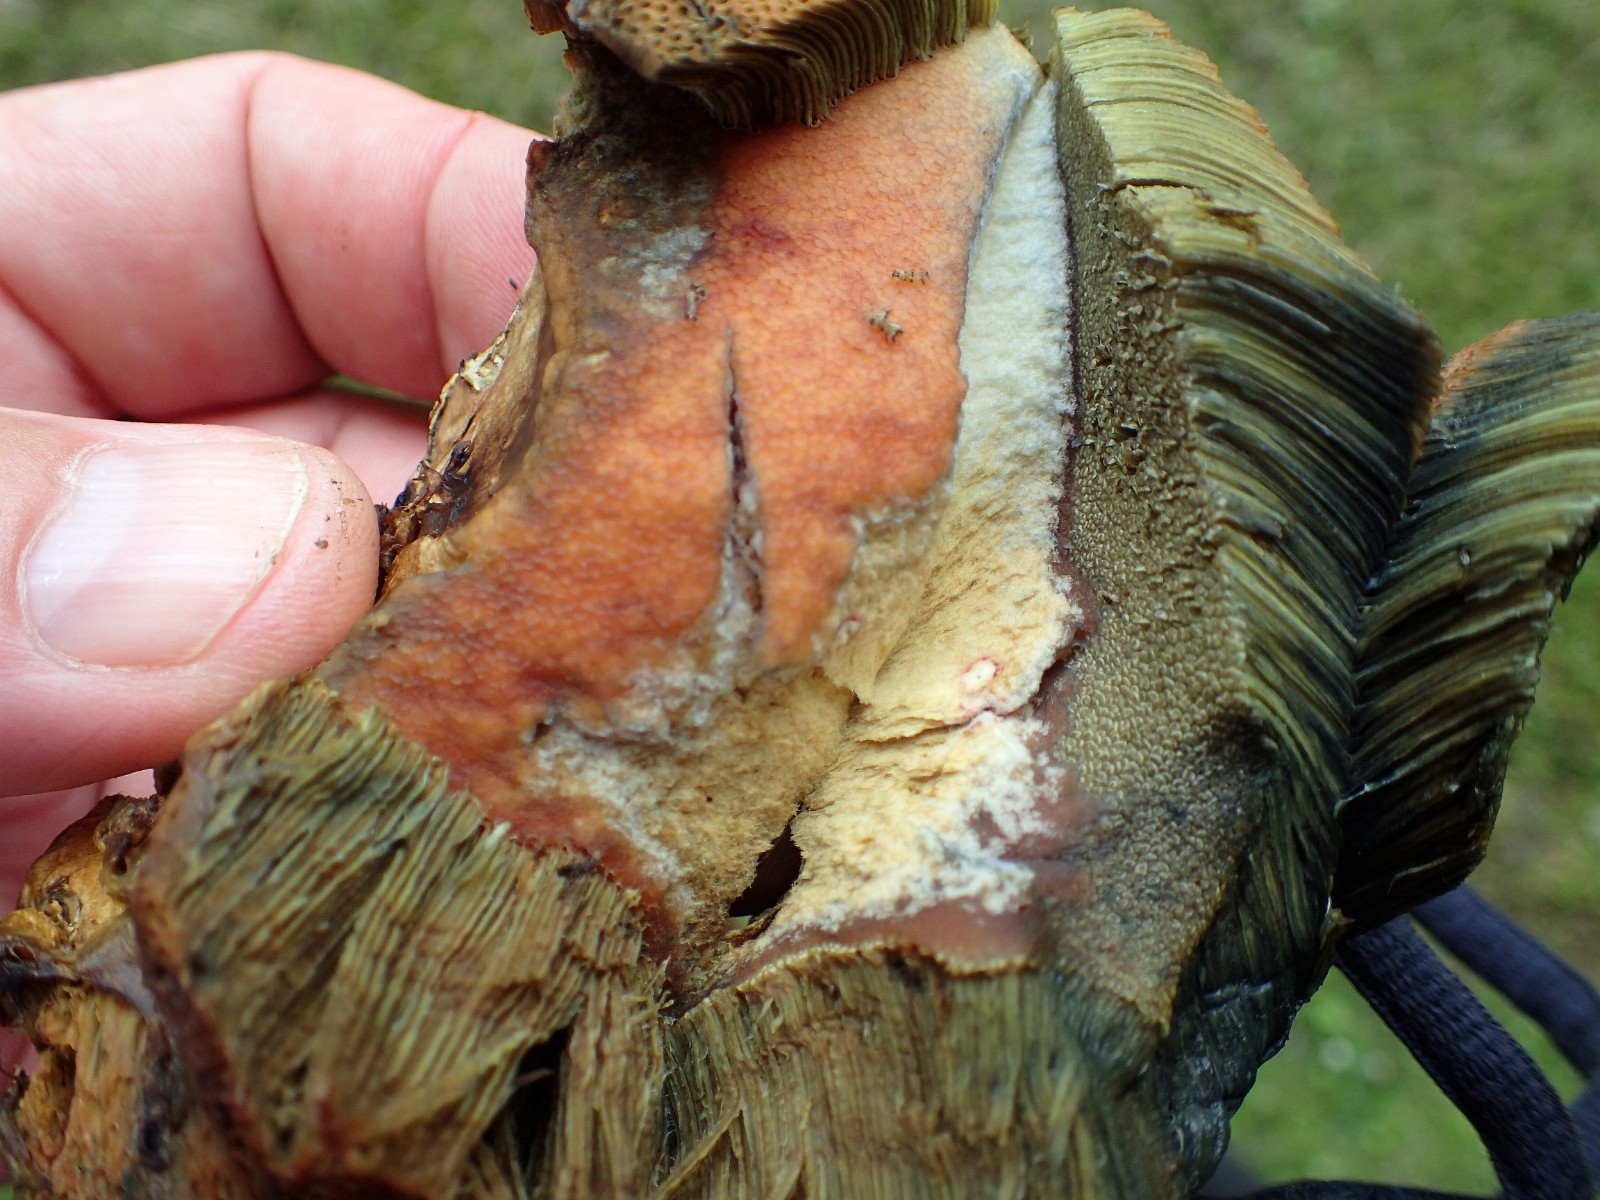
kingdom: Fungi
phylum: Basidiomycota
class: Agaricomycetes
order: Boletales
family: Boletaceae
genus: Suillellus
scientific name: Suillellus luridus
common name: netstokket indigorørhat
